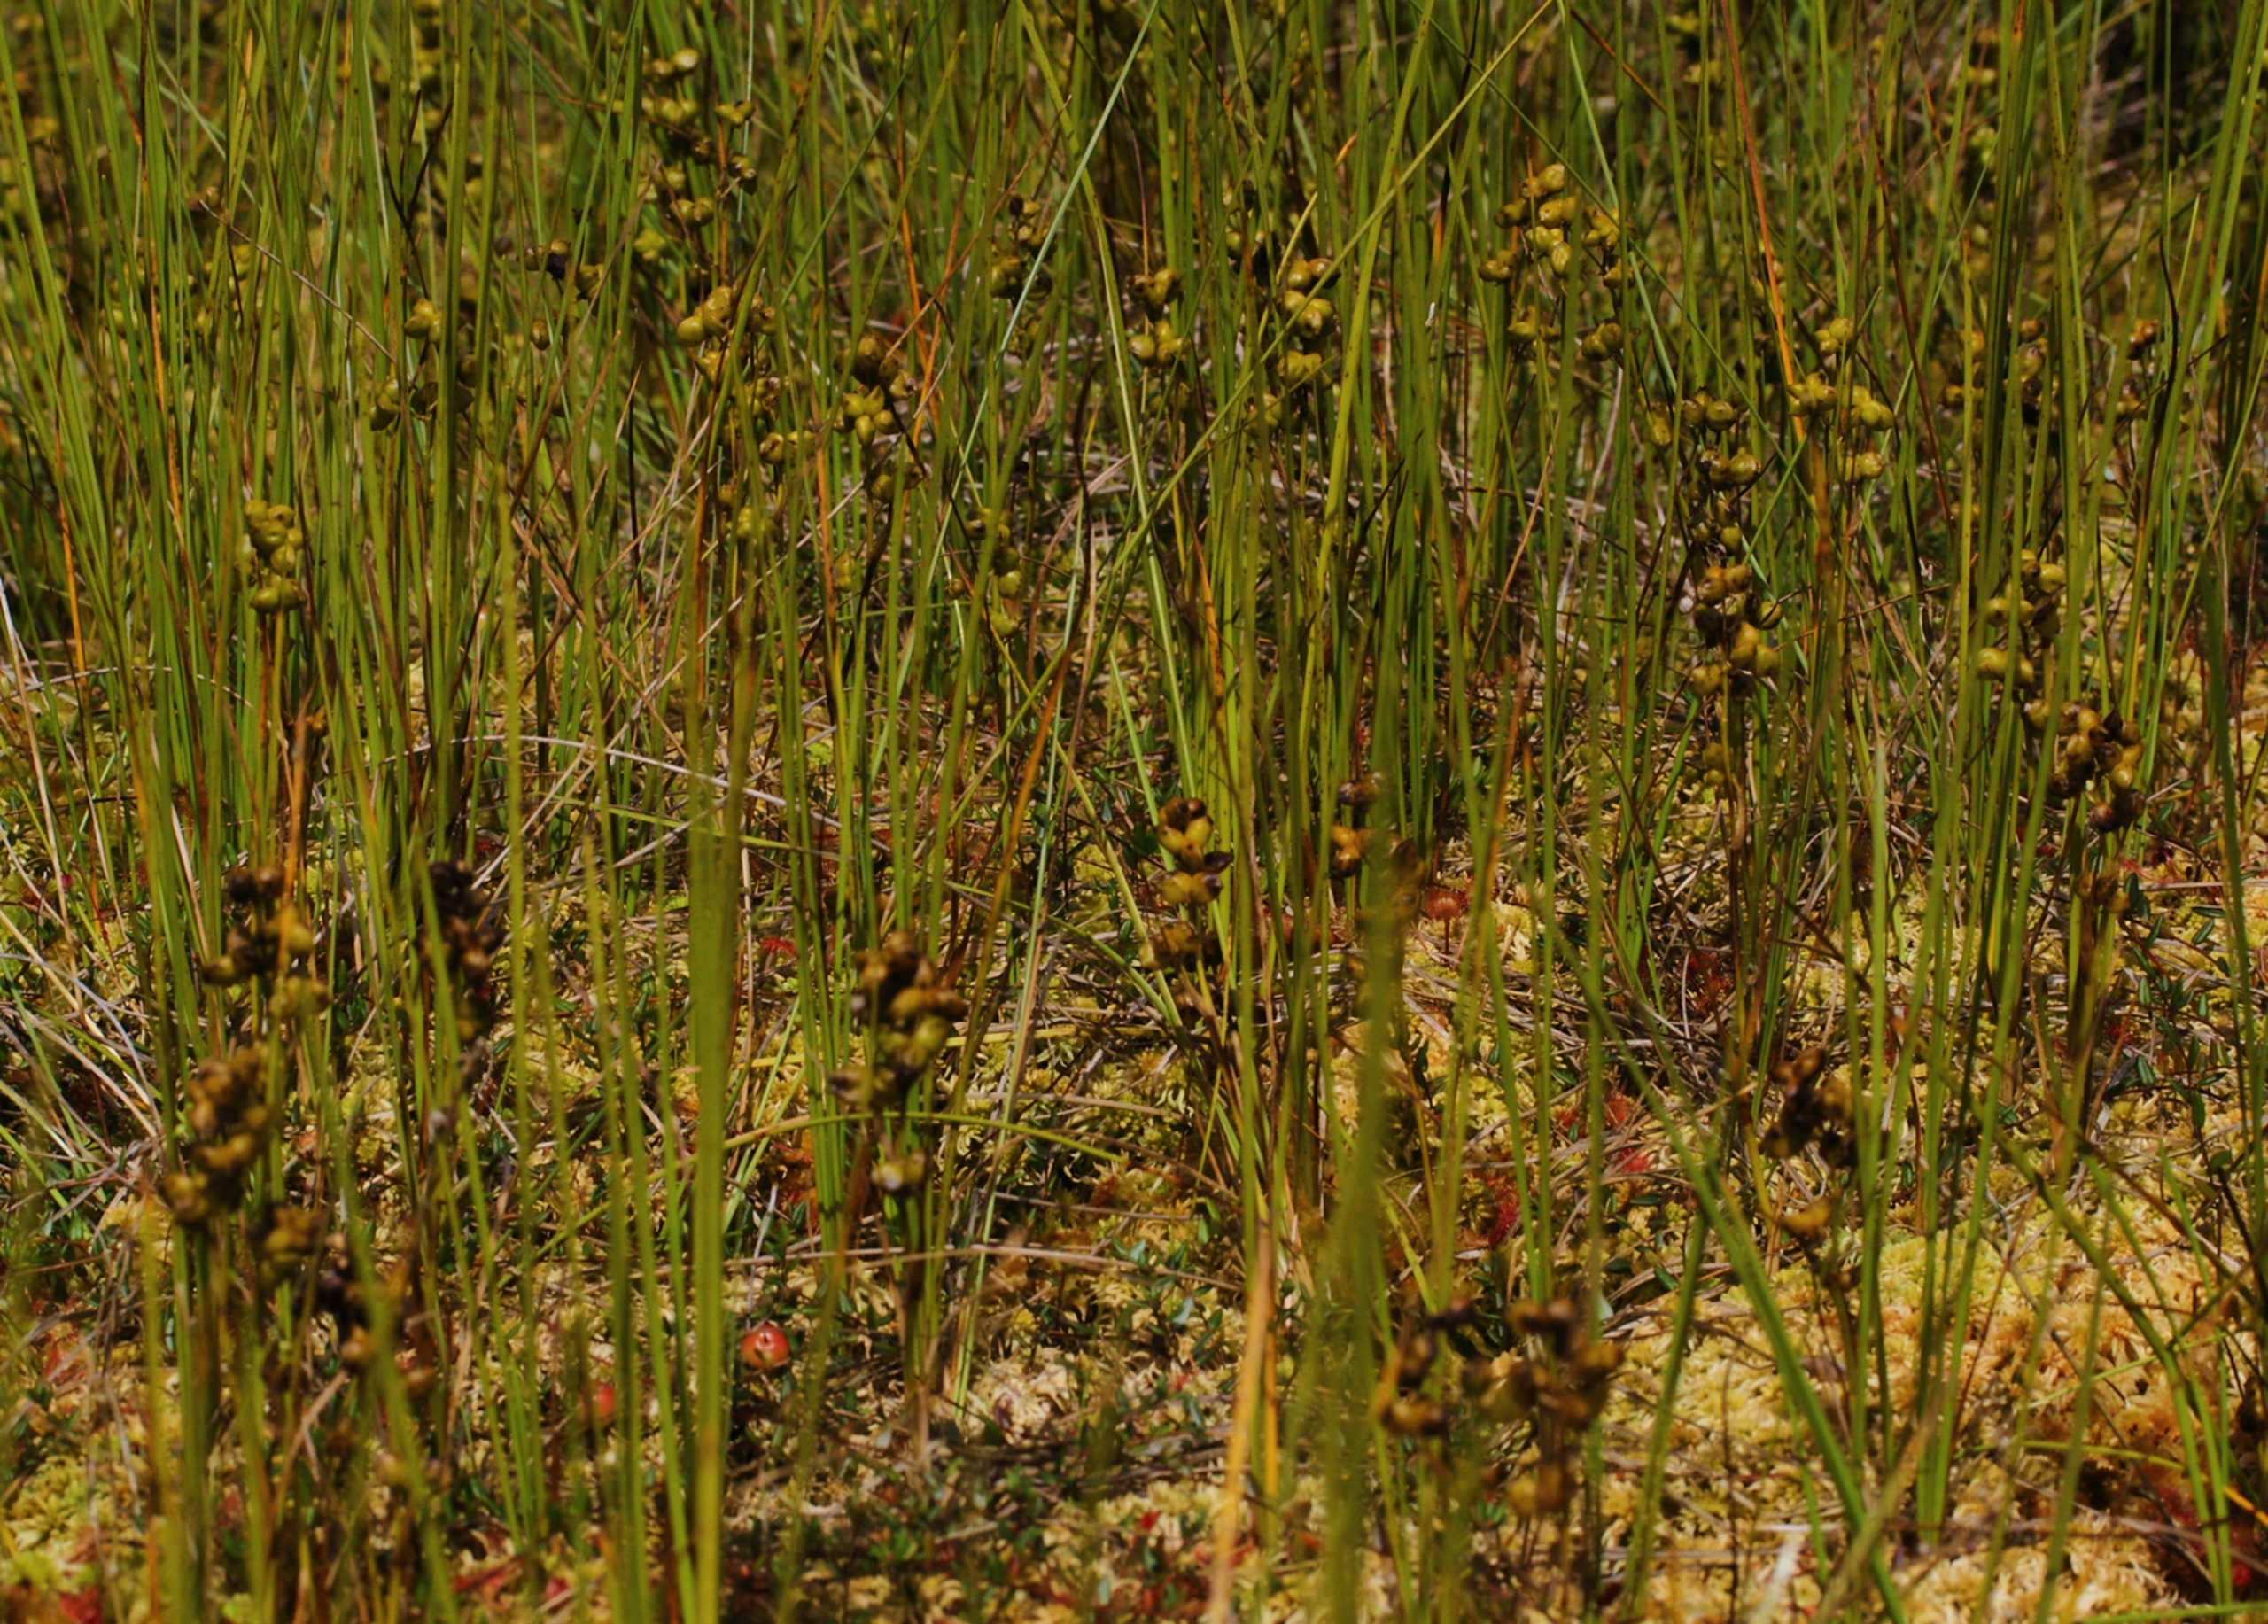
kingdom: Plantae
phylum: Tracheophyta
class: Liliopsida
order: Alismatales
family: Scheuchzeriaceae
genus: Scheuchzeria
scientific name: Scheuchzeria palustris
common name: Blomstersiv
